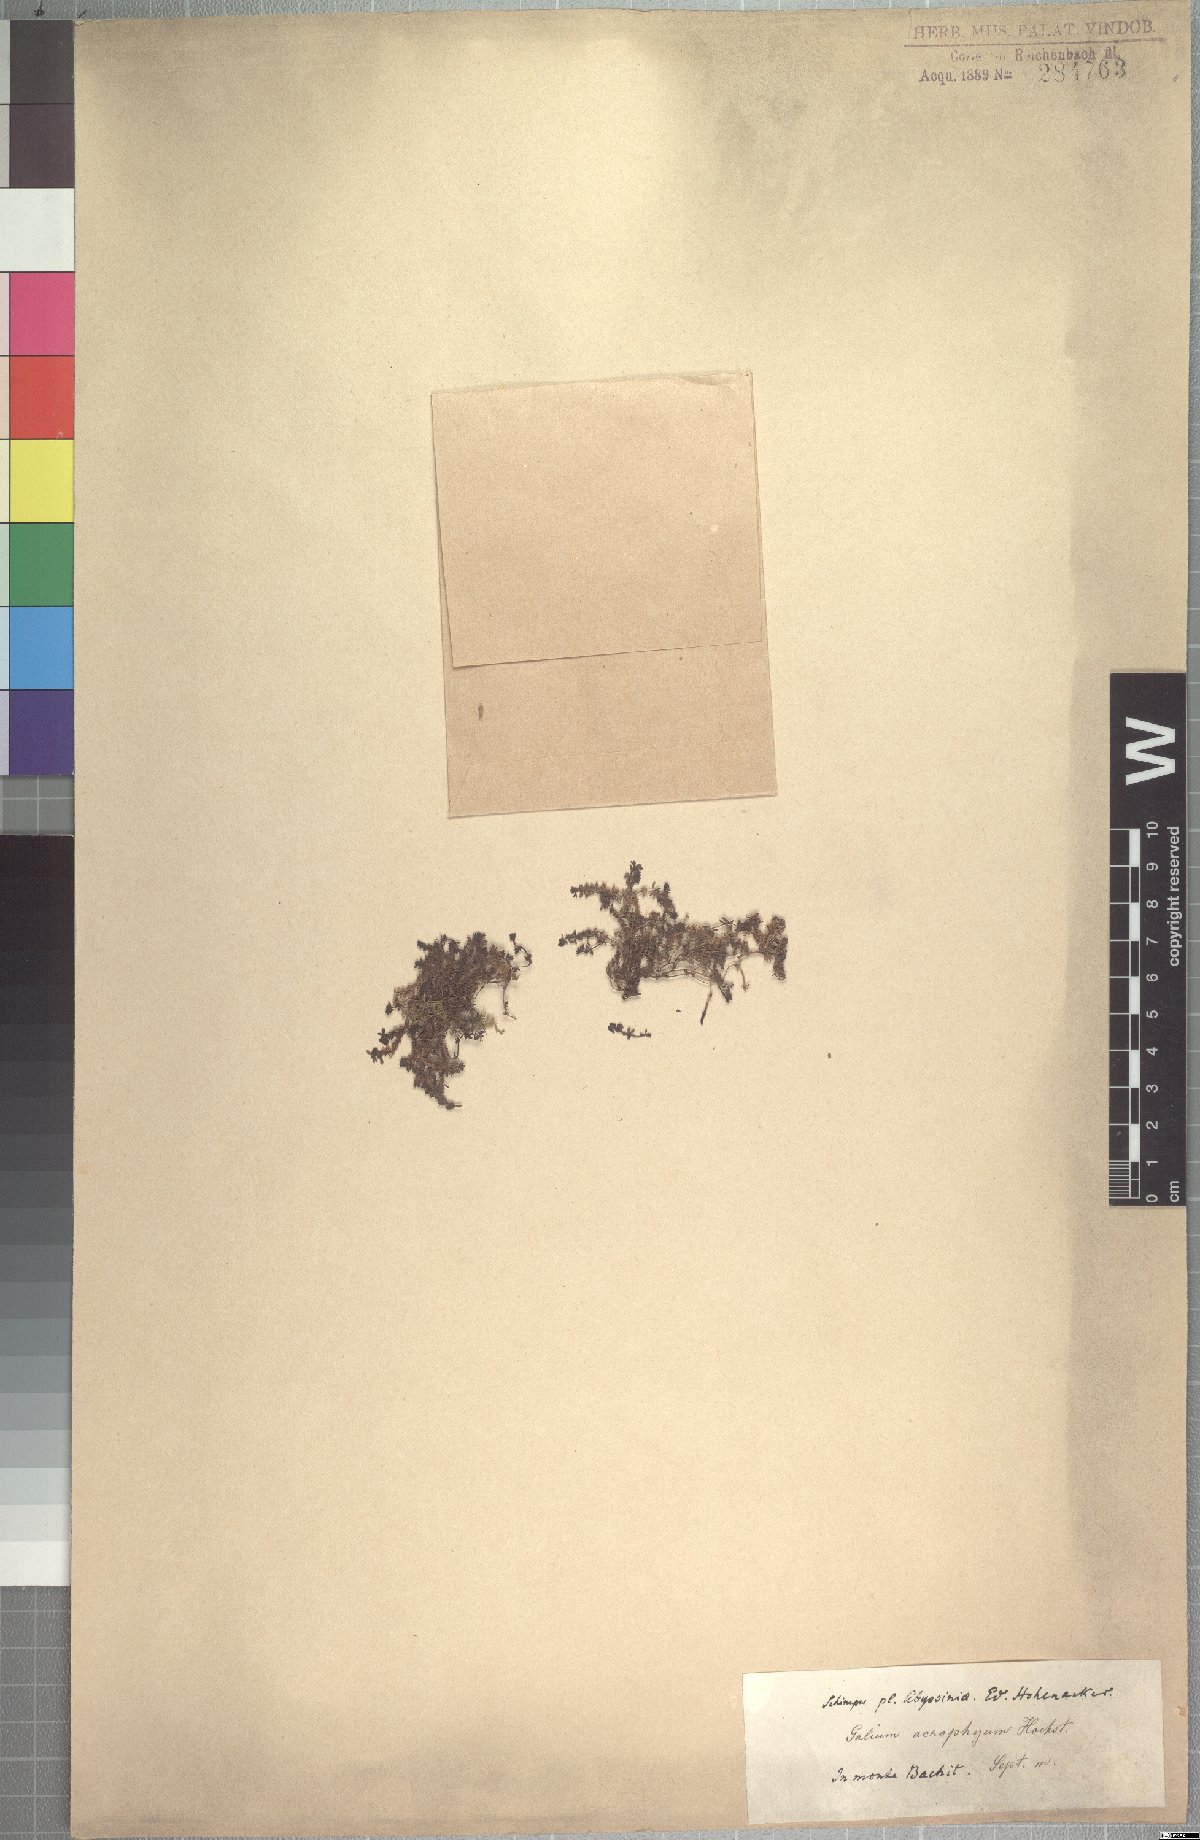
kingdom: Plantae
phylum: Tracheophyta
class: Magnoliopsida
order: Gentianales
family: Rubiaceae
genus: Galium
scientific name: Galium acrophyum
